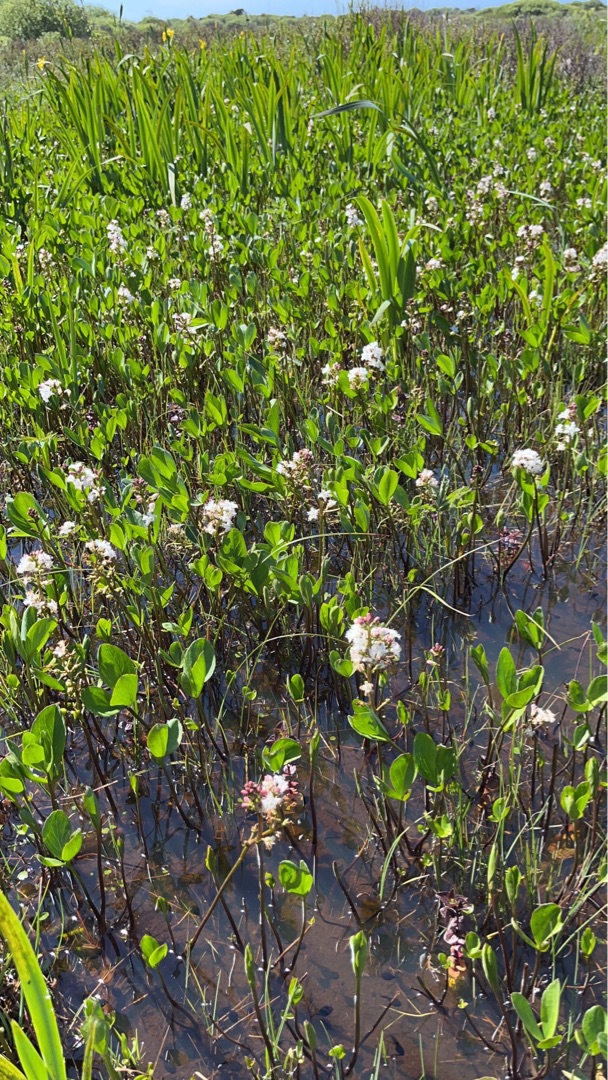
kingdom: Plantae
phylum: Tracheophyta
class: Magnoliopsida
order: Asterales
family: Menyanthaceae
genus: Menyanthes
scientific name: Menyanthes trifoliata
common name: Bukkeblad
